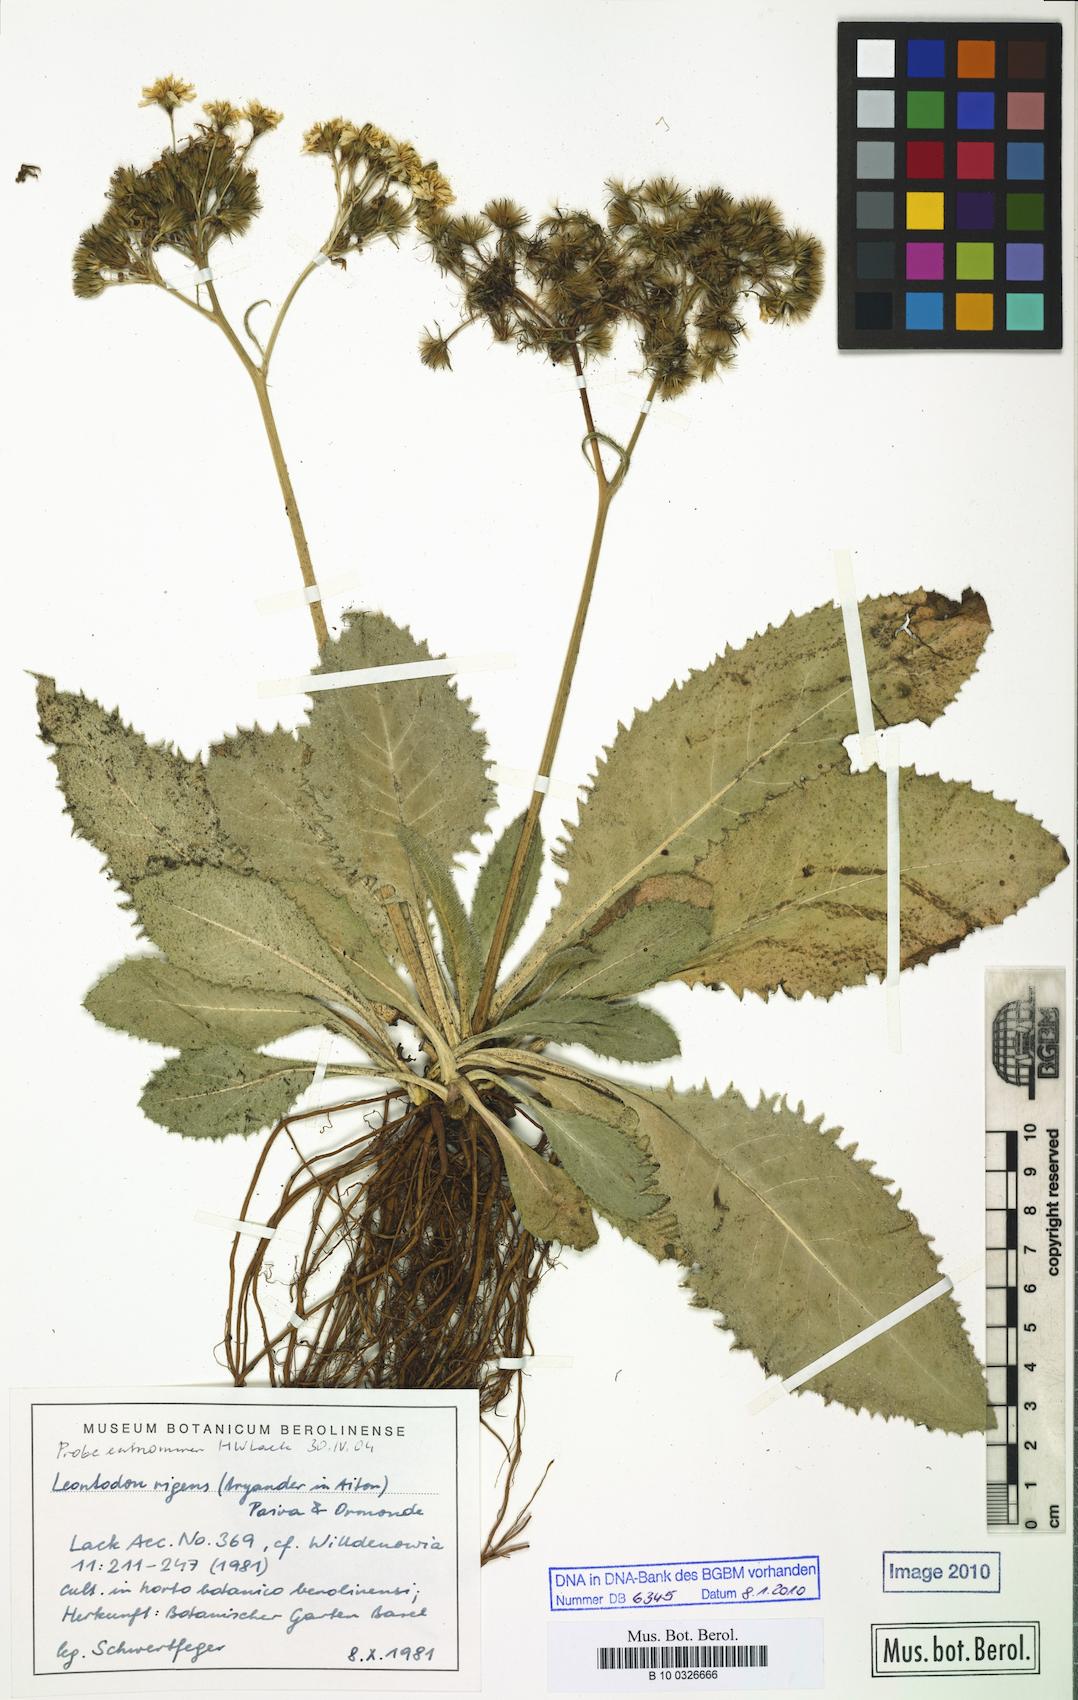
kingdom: Plantae
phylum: Tracheophyta
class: Magnoliopsida
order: Asterales
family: Asteraceae
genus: Leontodon
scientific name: Leontodon rigens
